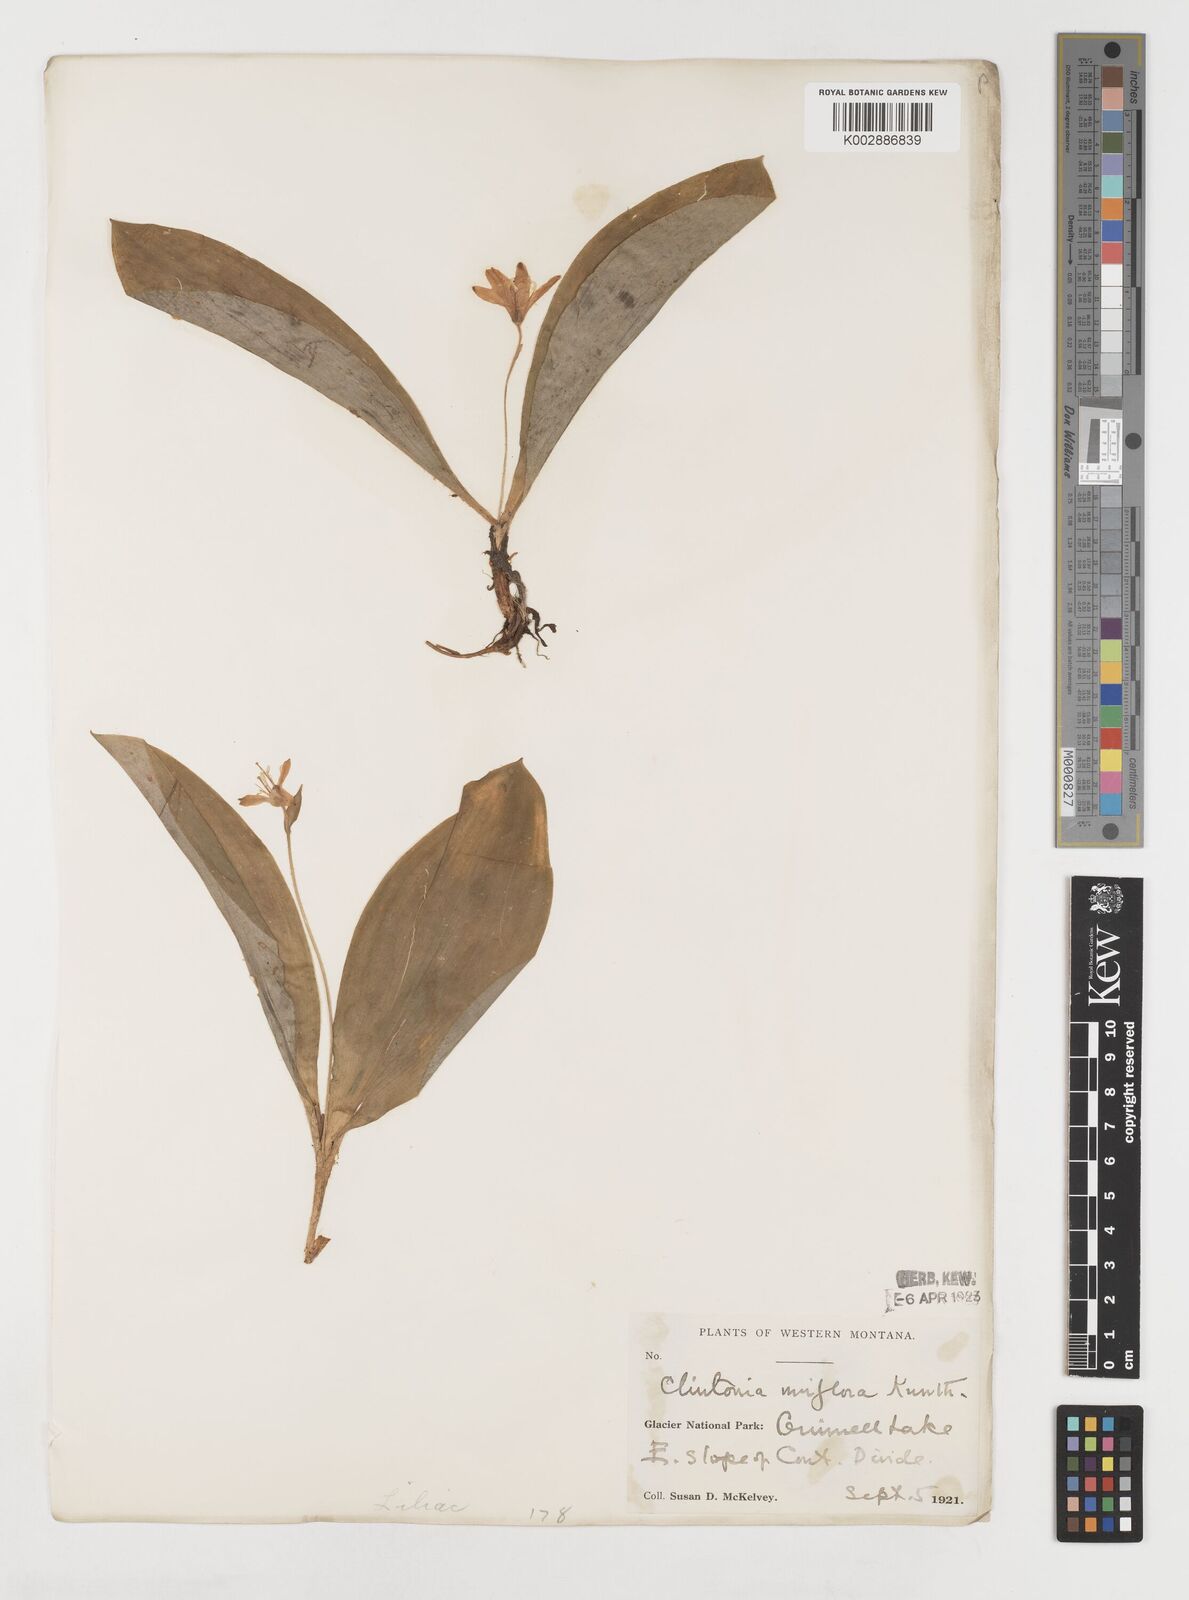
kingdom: Plantae
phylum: Tracheophyta
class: Liliopsida
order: Liliales
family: Liliaceae
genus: Clintonia
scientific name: Clintonia uniflora
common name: Queen's cup
